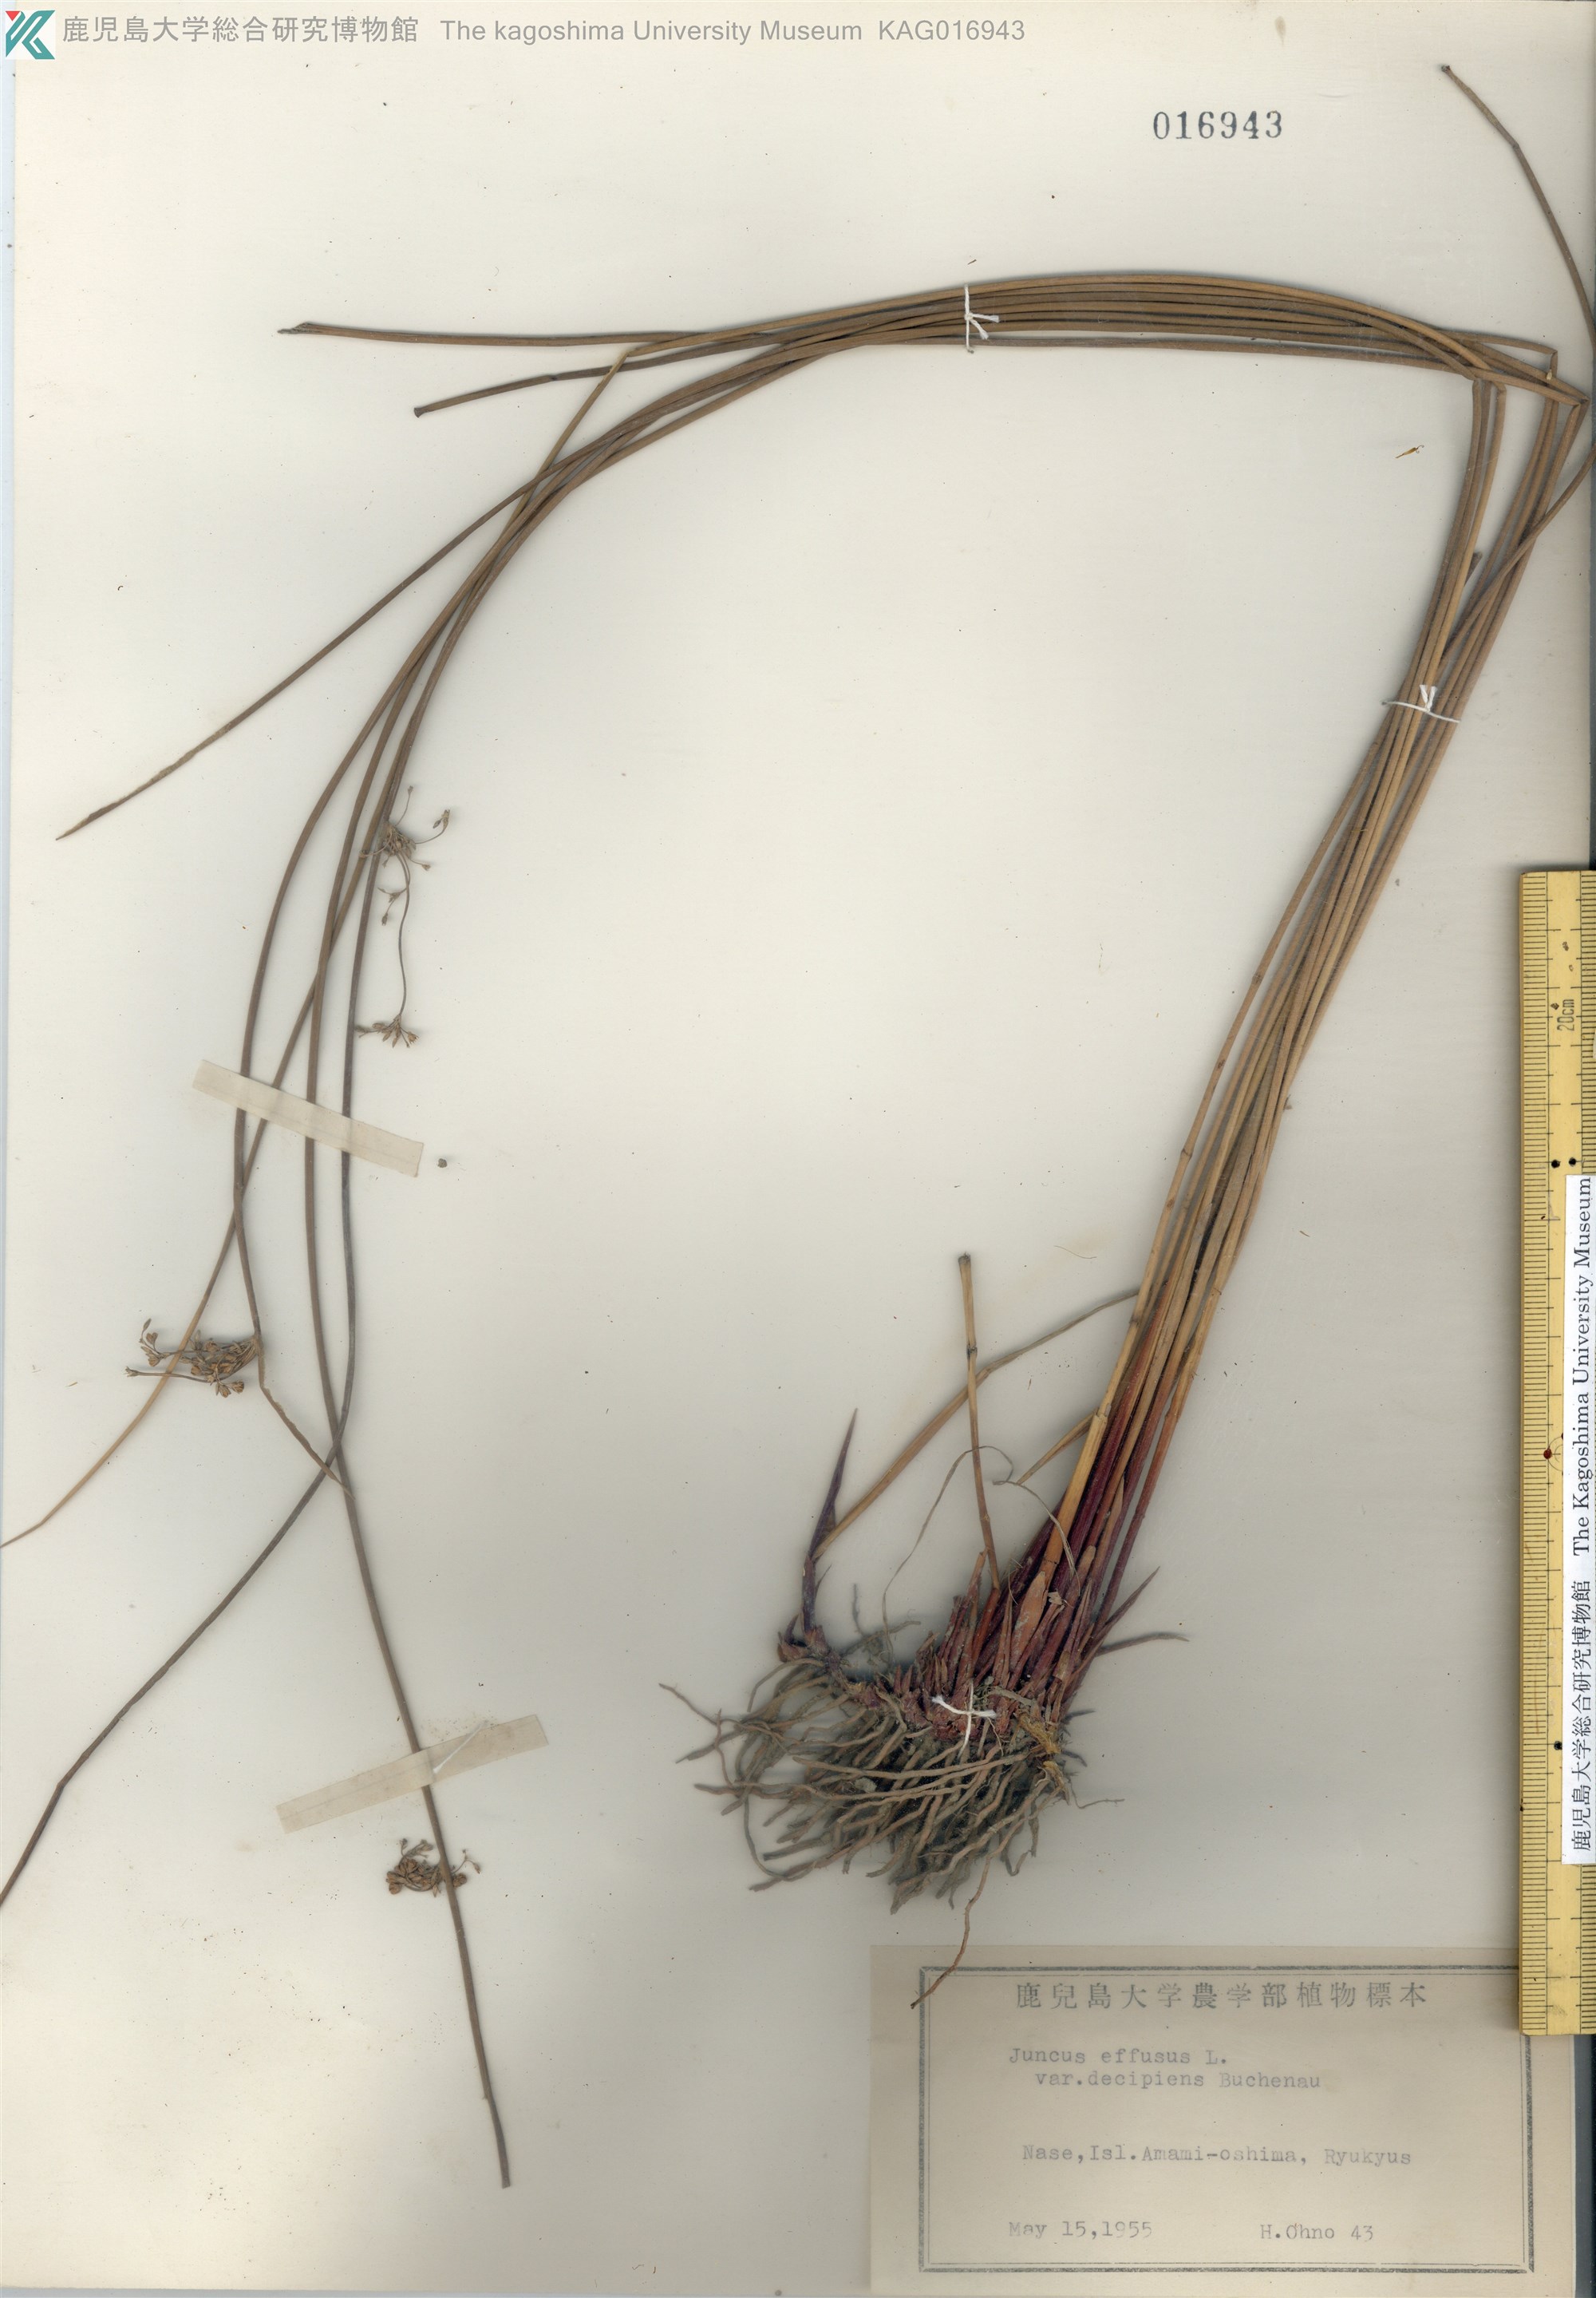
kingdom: Plantae
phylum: Tracheophyta
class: Liliopsida
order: Poales
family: Juncaceae
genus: Juncus
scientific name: Juncus decipiens
